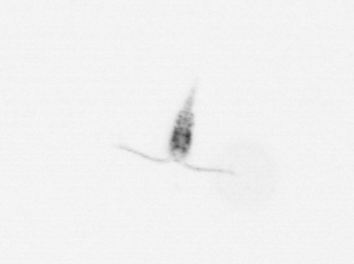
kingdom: Animalia
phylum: Arthropoda
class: Copepoda
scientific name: Copepoda
